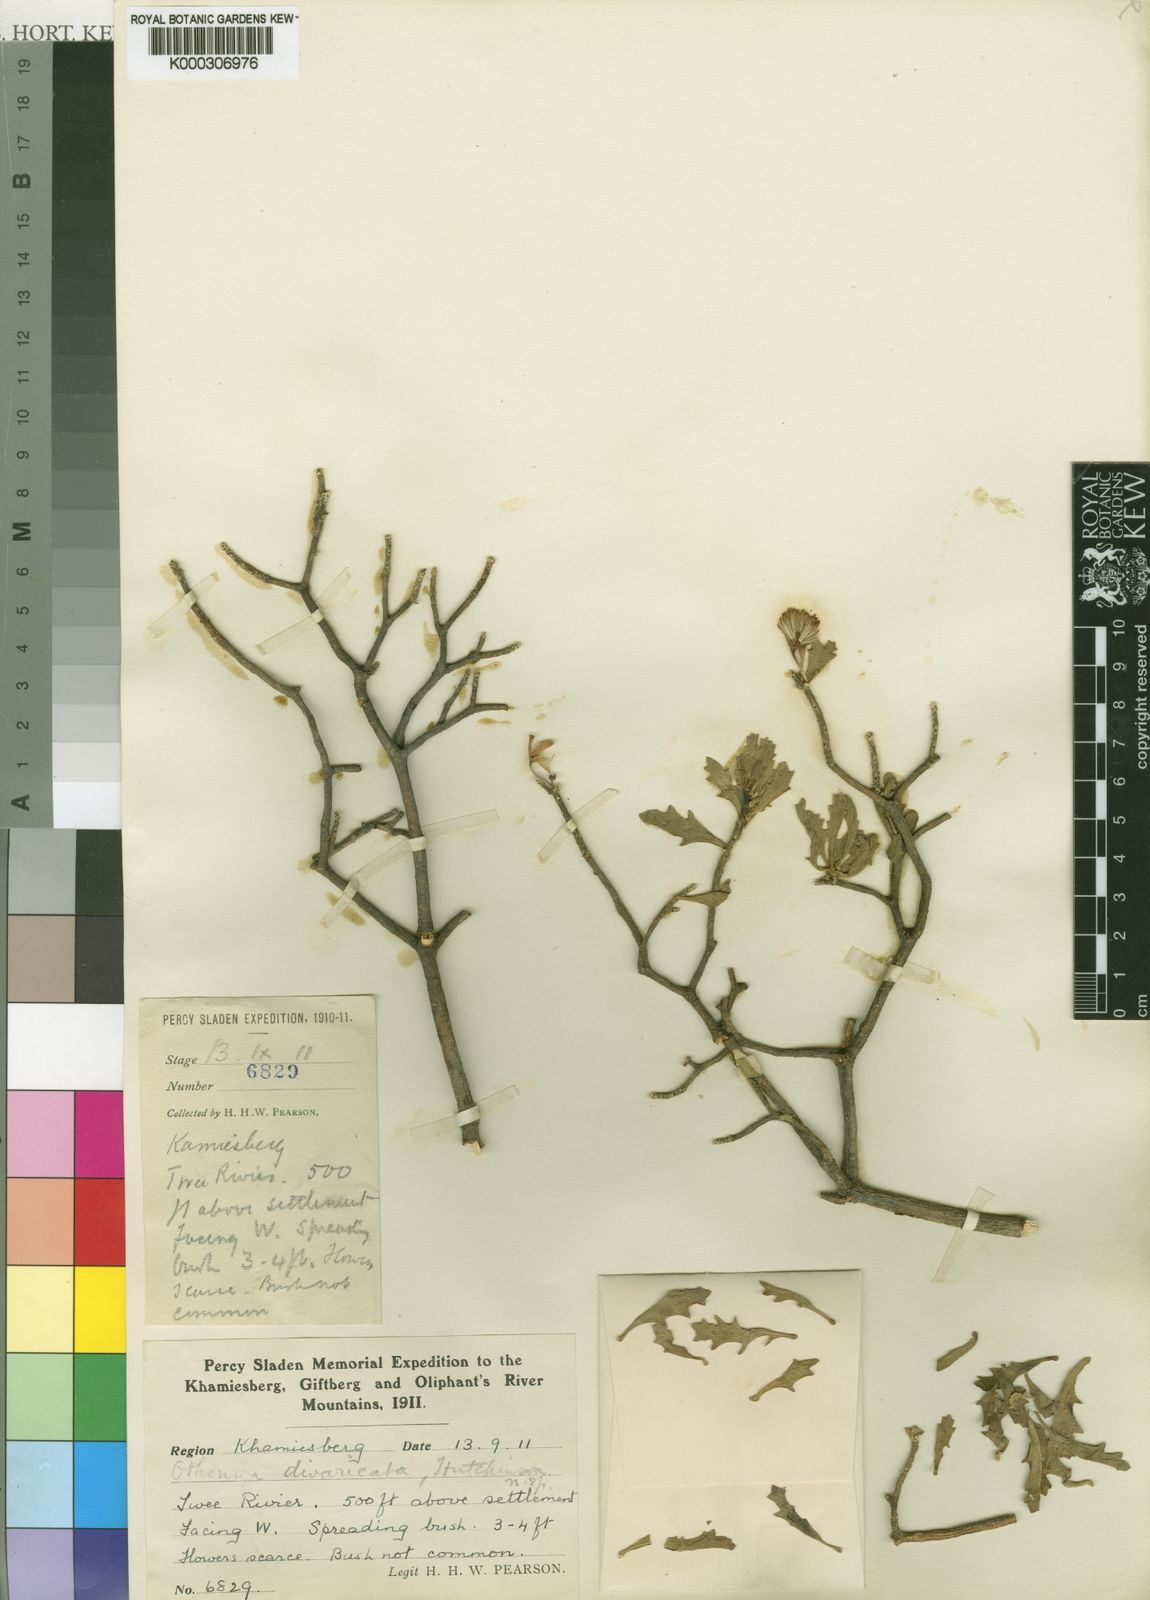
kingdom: Plantae
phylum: Tracheophyta
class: Magnoliopsida
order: Asterales
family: Asteraceae
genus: Othonna
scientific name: Othonna divaricata
